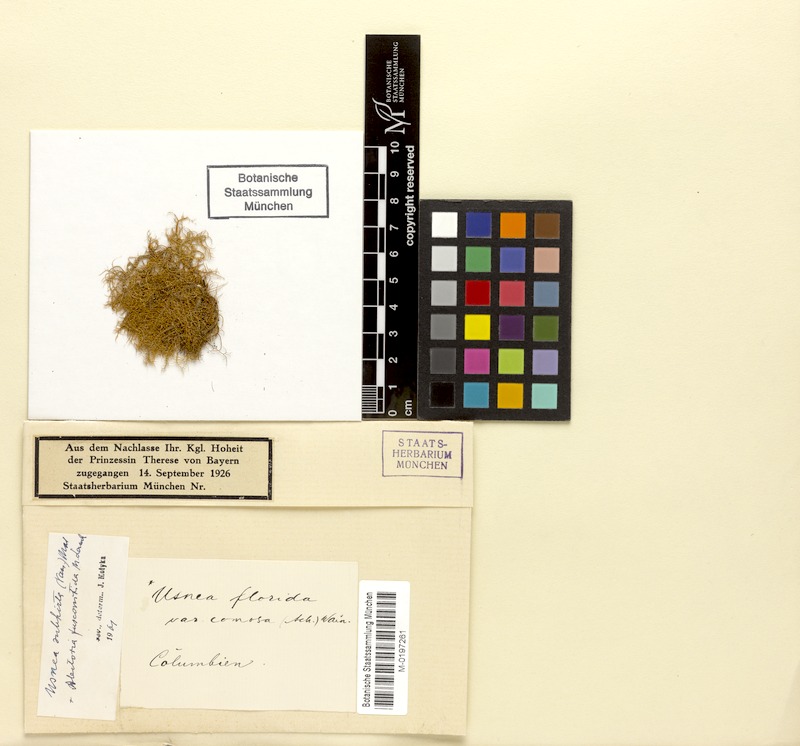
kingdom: Fungi
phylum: Ascomycota
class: Lecanoromycetes
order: Lecanorales
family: Parmeliaceae
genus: Alectoria
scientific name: Alectoria
